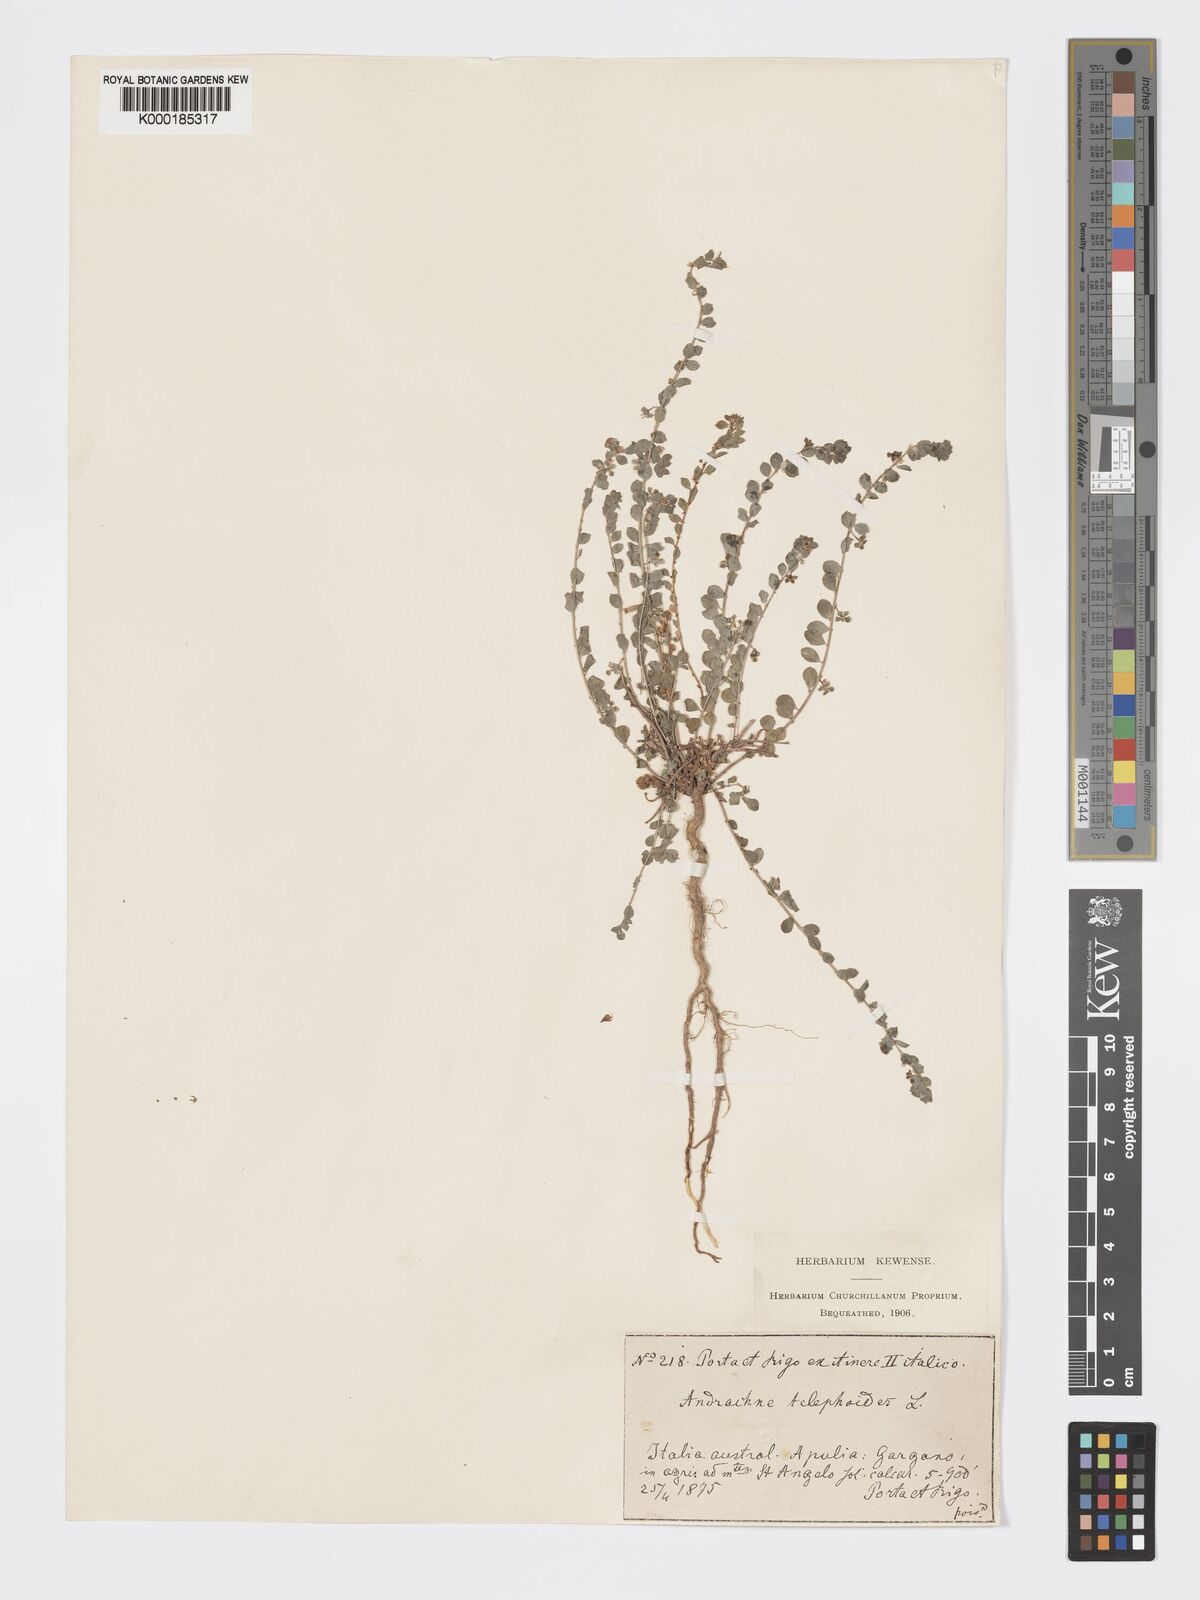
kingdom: Plantae
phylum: Tracheophyta
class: Magnoliopsida
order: Malpighiales
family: Phyllanthaceae
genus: Andrachne
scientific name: Andrachne telephioides
